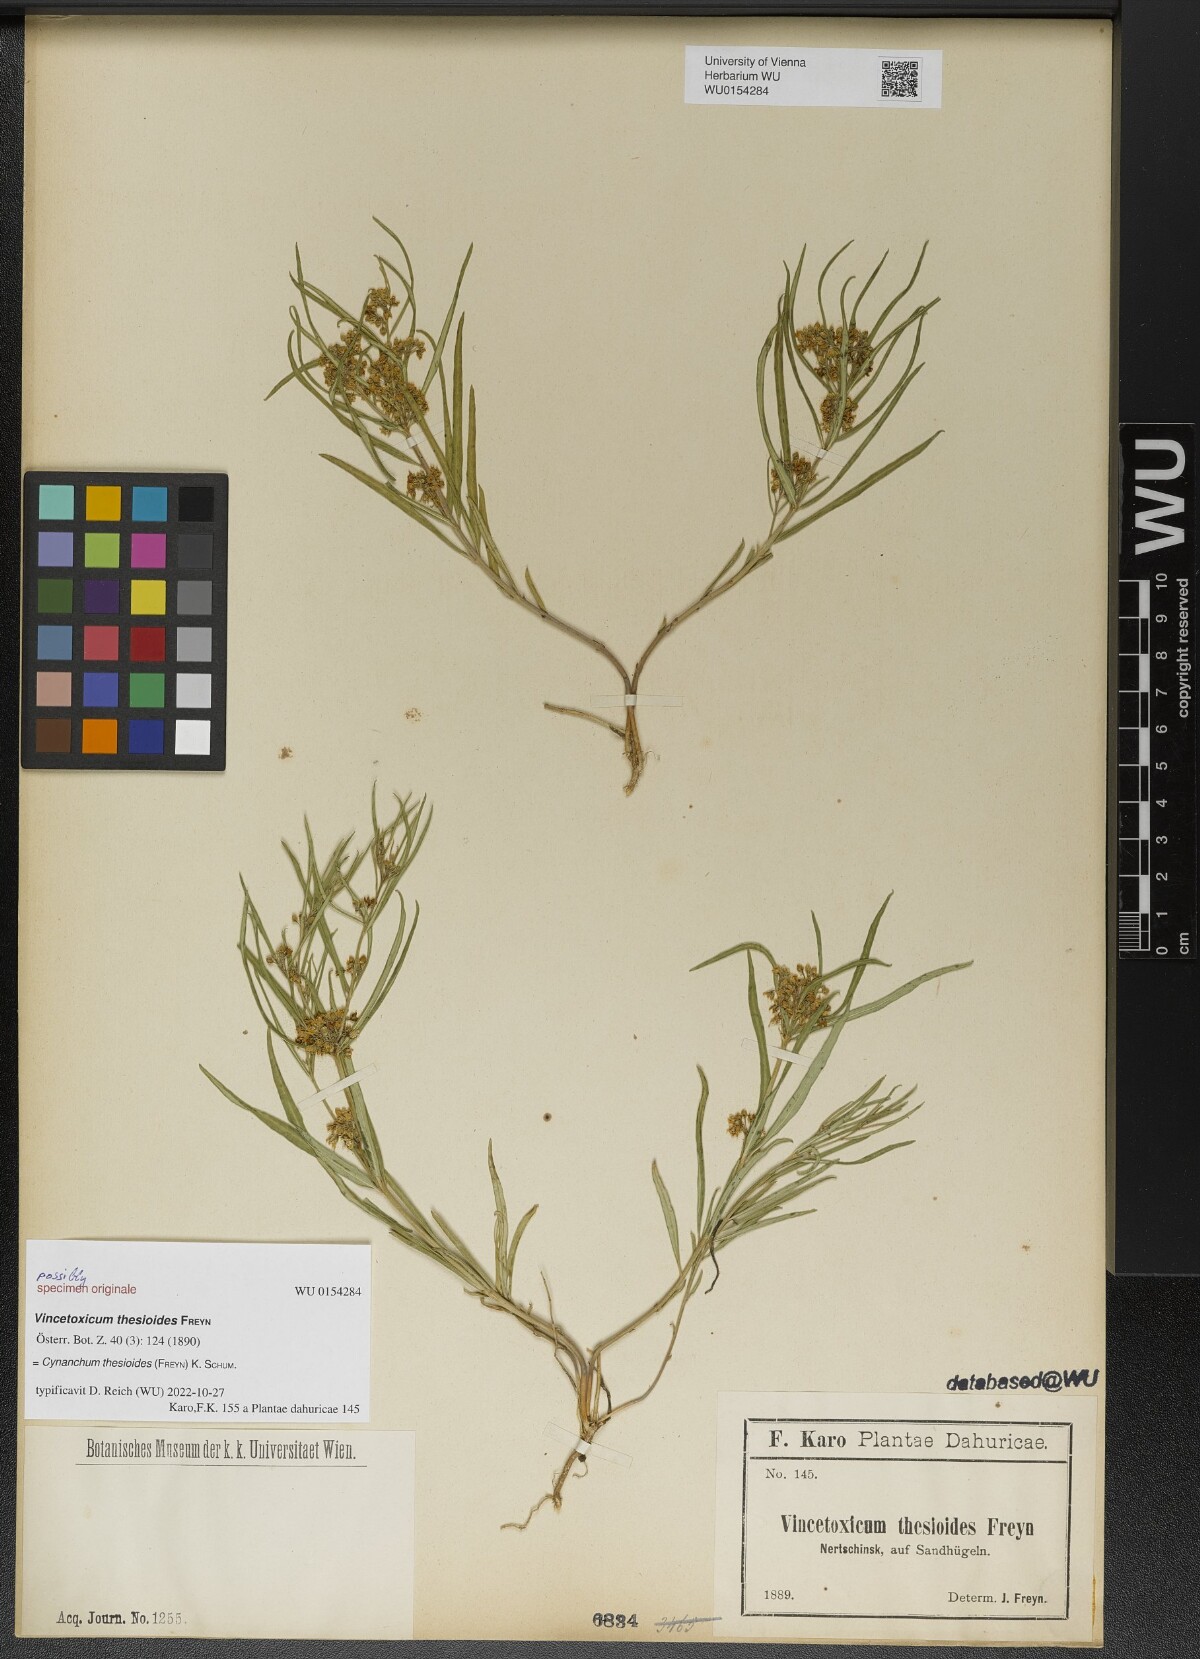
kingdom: Plantae
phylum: Tracheophyta
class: Magnoliopsida
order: Gentianales
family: Apocynaceae
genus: Cynanchum
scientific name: Cynanchum thesioides
